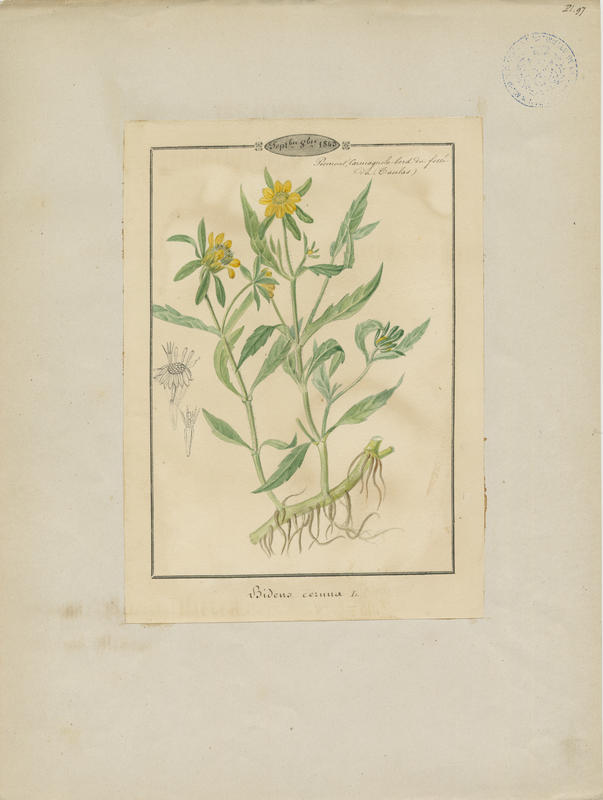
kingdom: Plantae
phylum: Tracheophyta
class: Magnoliopsida
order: Asterales
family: Asteraceae
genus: Bidens
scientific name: Bidens cernua
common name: Nodding bur-marigold
